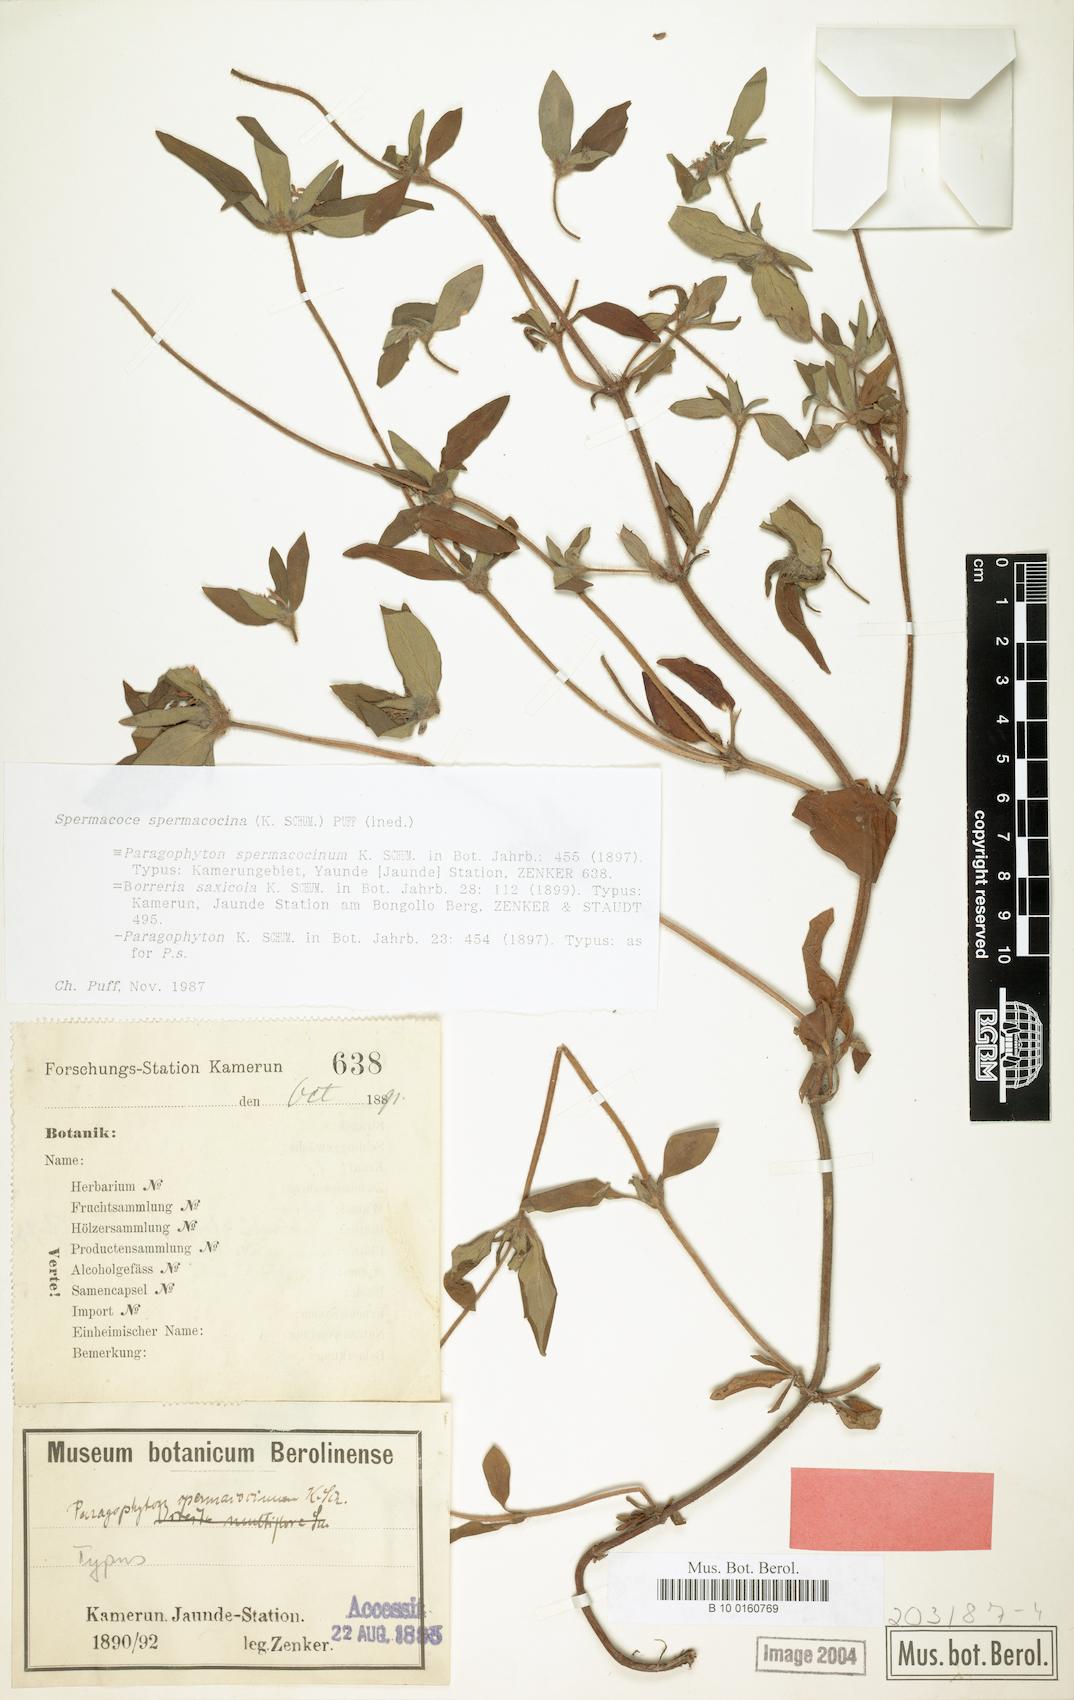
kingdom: Plantae
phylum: Tracheophyta
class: Magnoliopsida
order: Gentianales
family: Rubiaceae
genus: Spermacoce
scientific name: Spermacoce spermacocina
